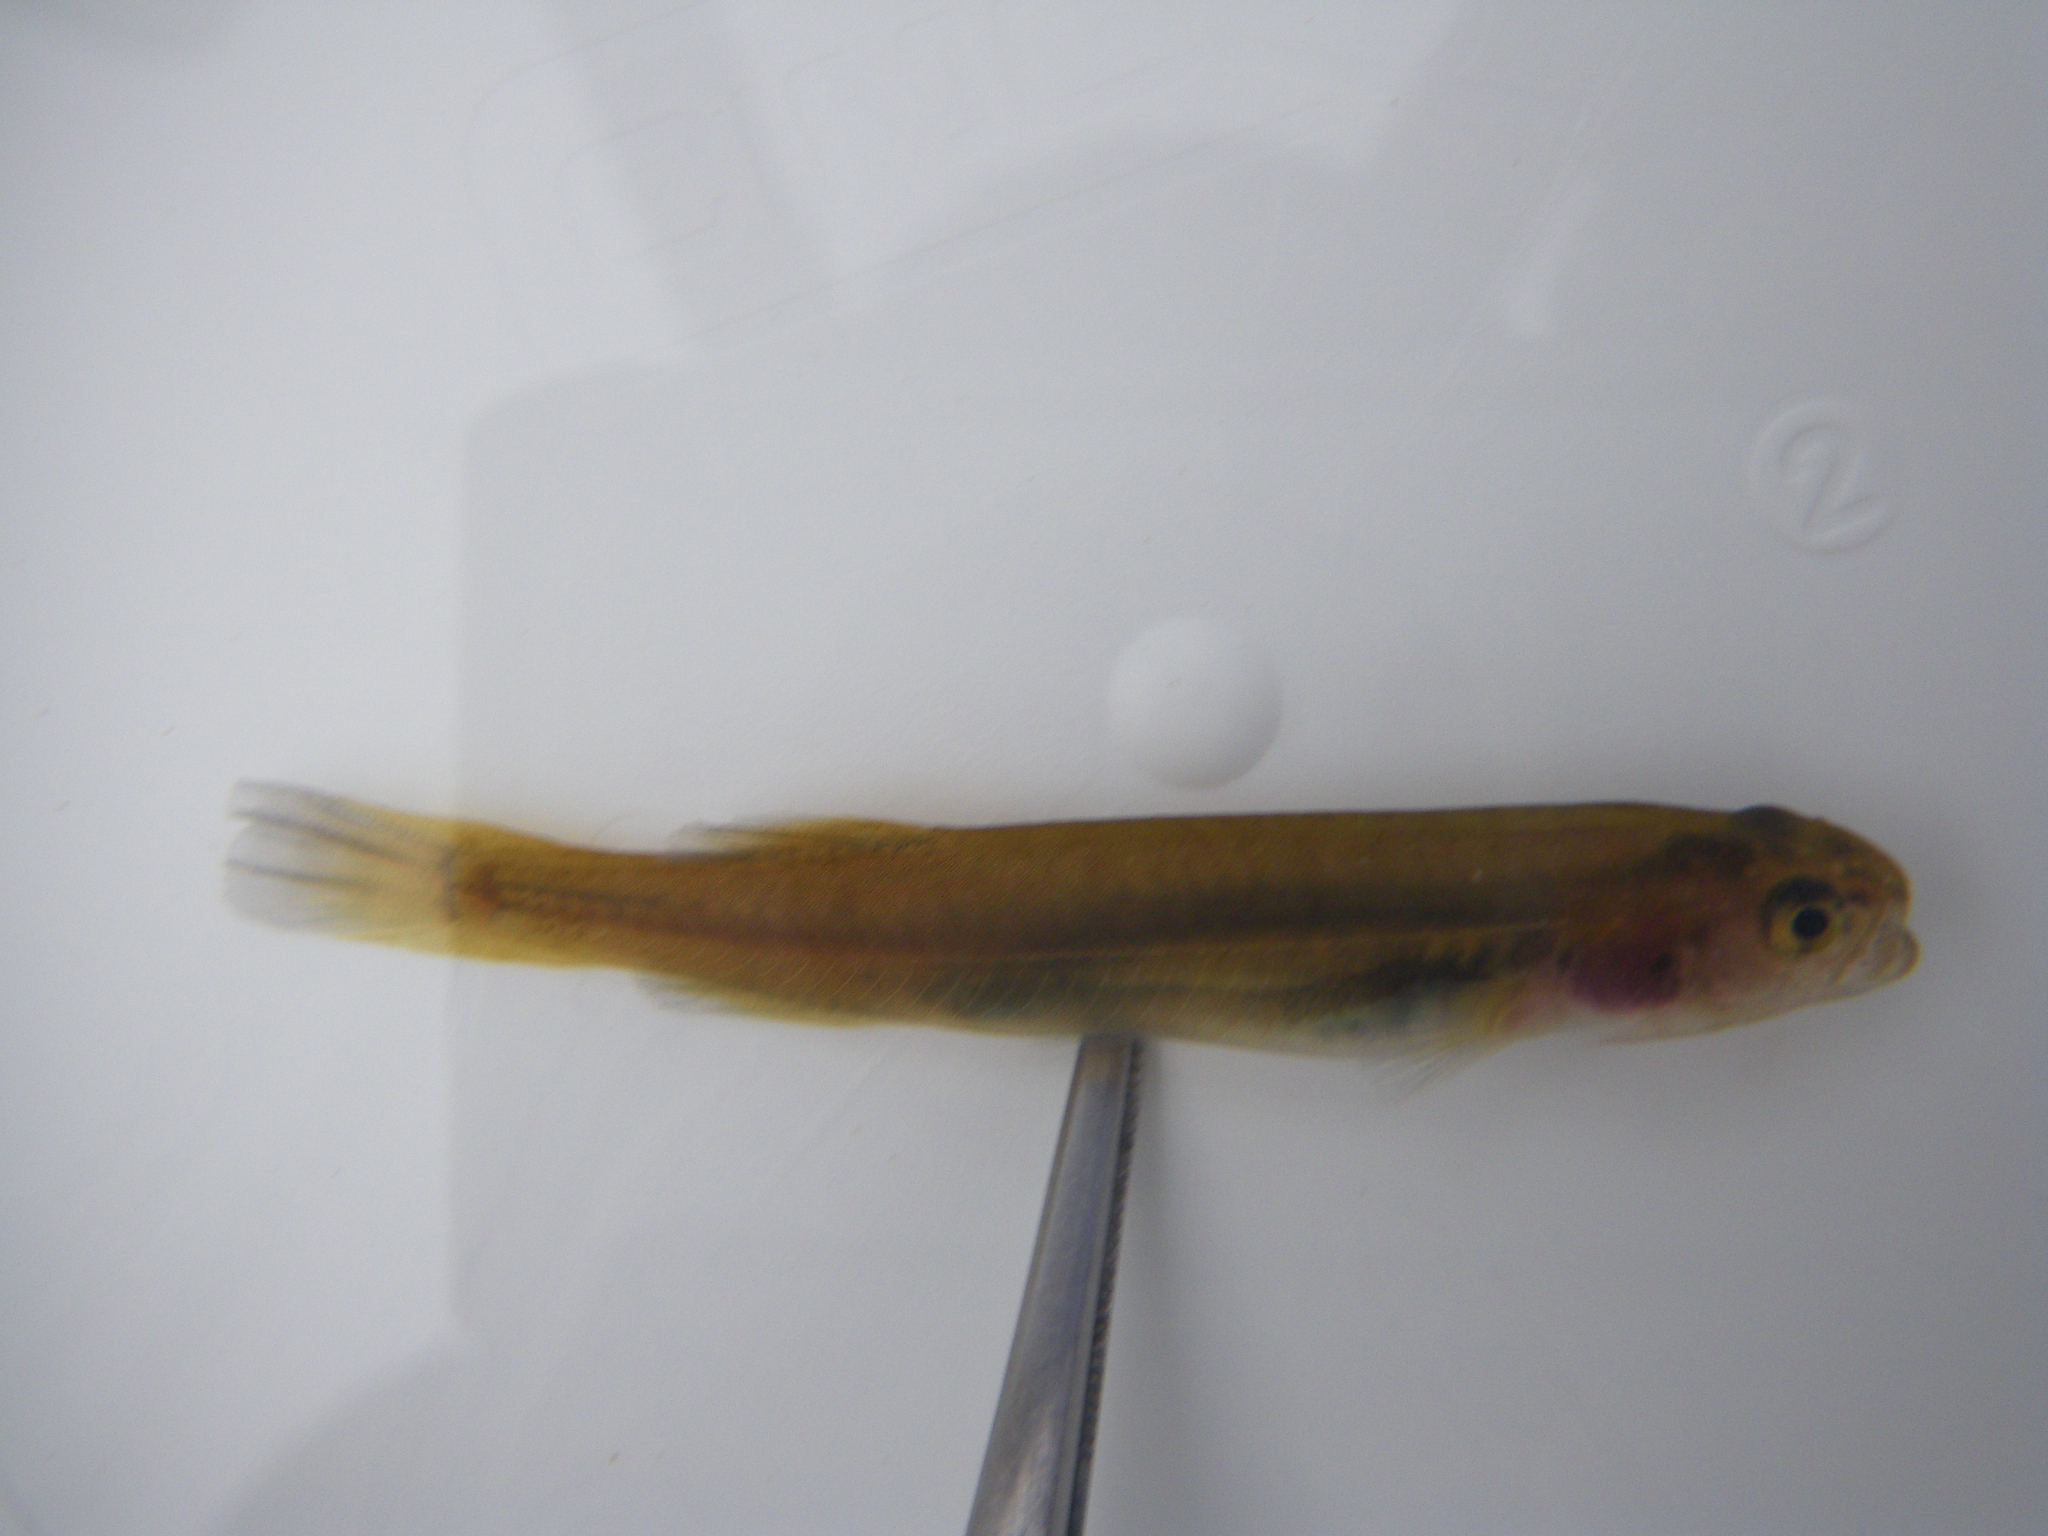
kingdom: Animalia
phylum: Chordata
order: Osmeriformes
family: Galaxiidae
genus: Galaxias
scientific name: Galaxias
